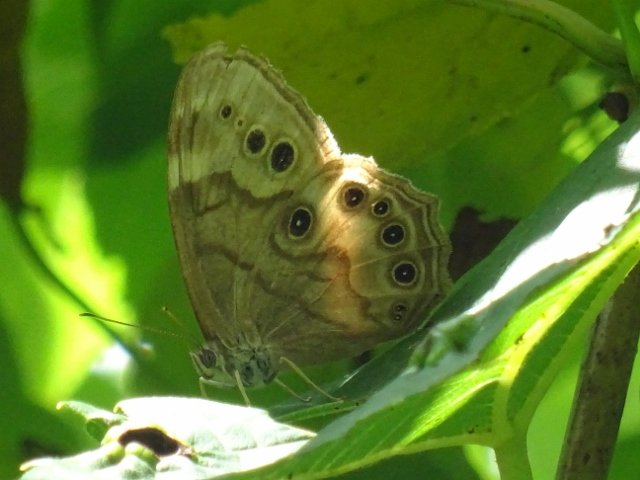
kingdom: Animalia
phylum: Arthropoda
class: Insecta
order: Lepidoptera
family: Nymphalidae
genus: Lethe
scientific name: Lethe anthedon
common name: Northern Pearly-Eye
